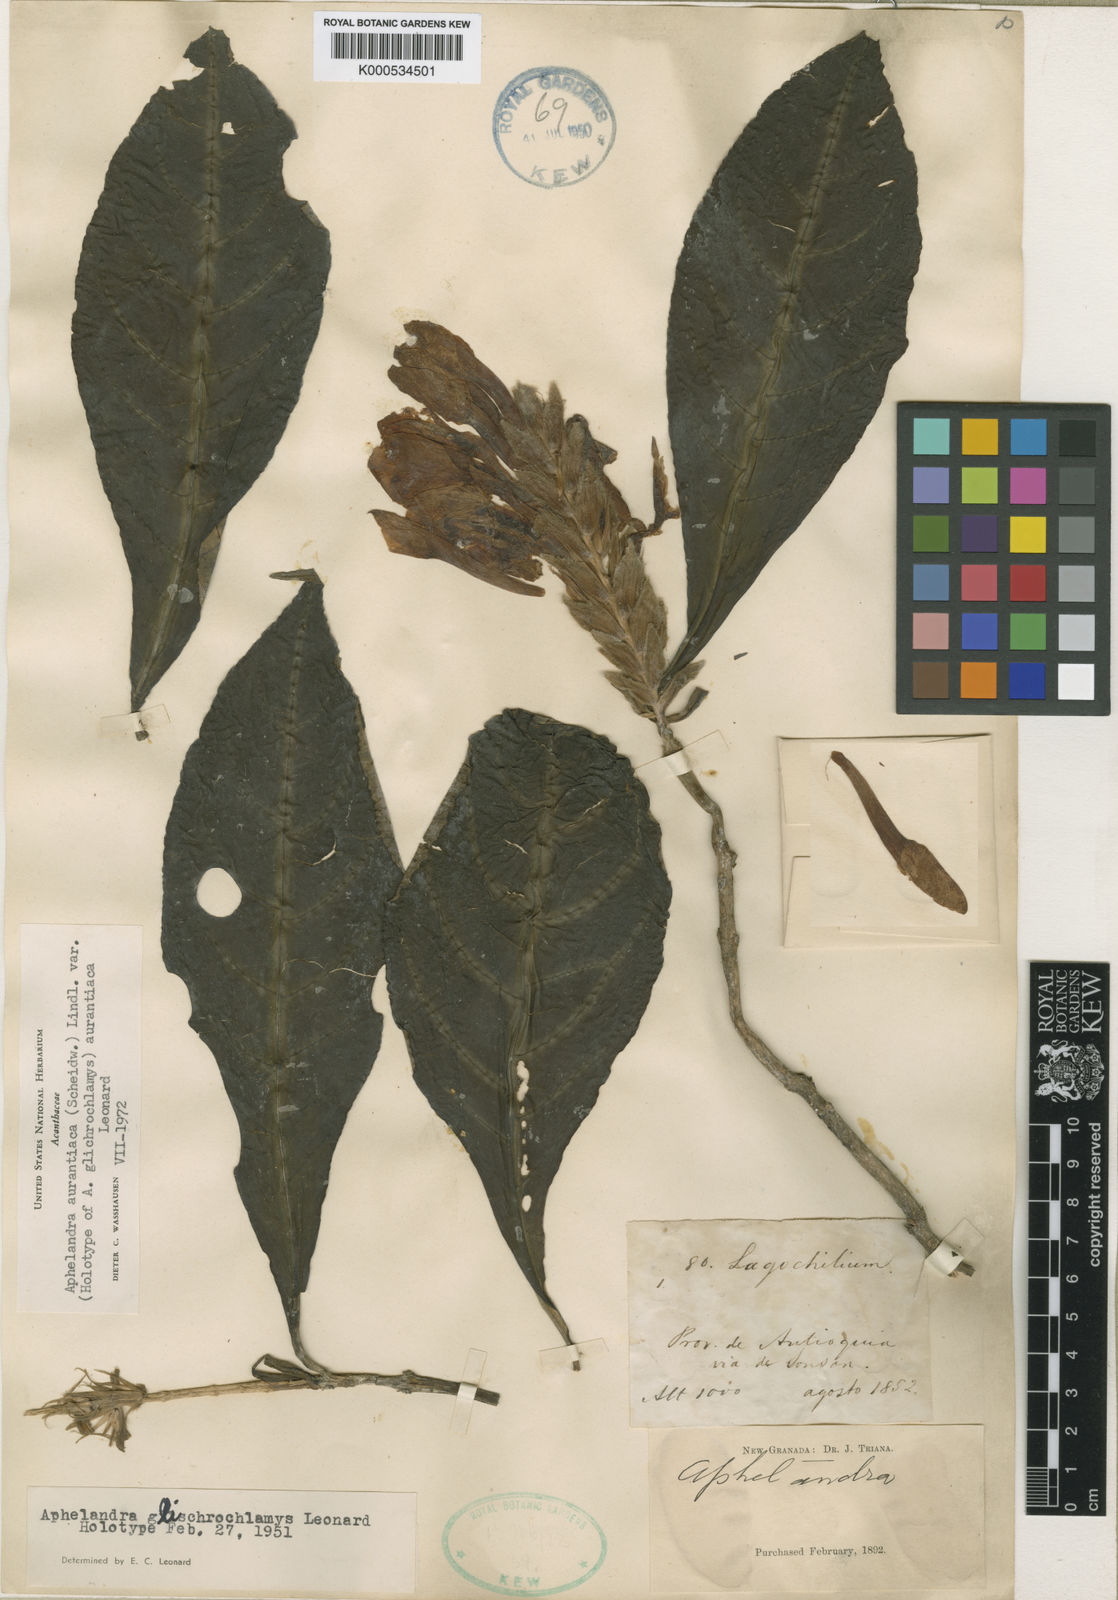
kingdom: Plantae
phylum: Tracheophyta
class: Magnoliopsida
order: Lamiales
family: Acanthaceae
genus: Aphelandra
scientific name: Aphelandra aurantiaca
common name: Fiery spike
